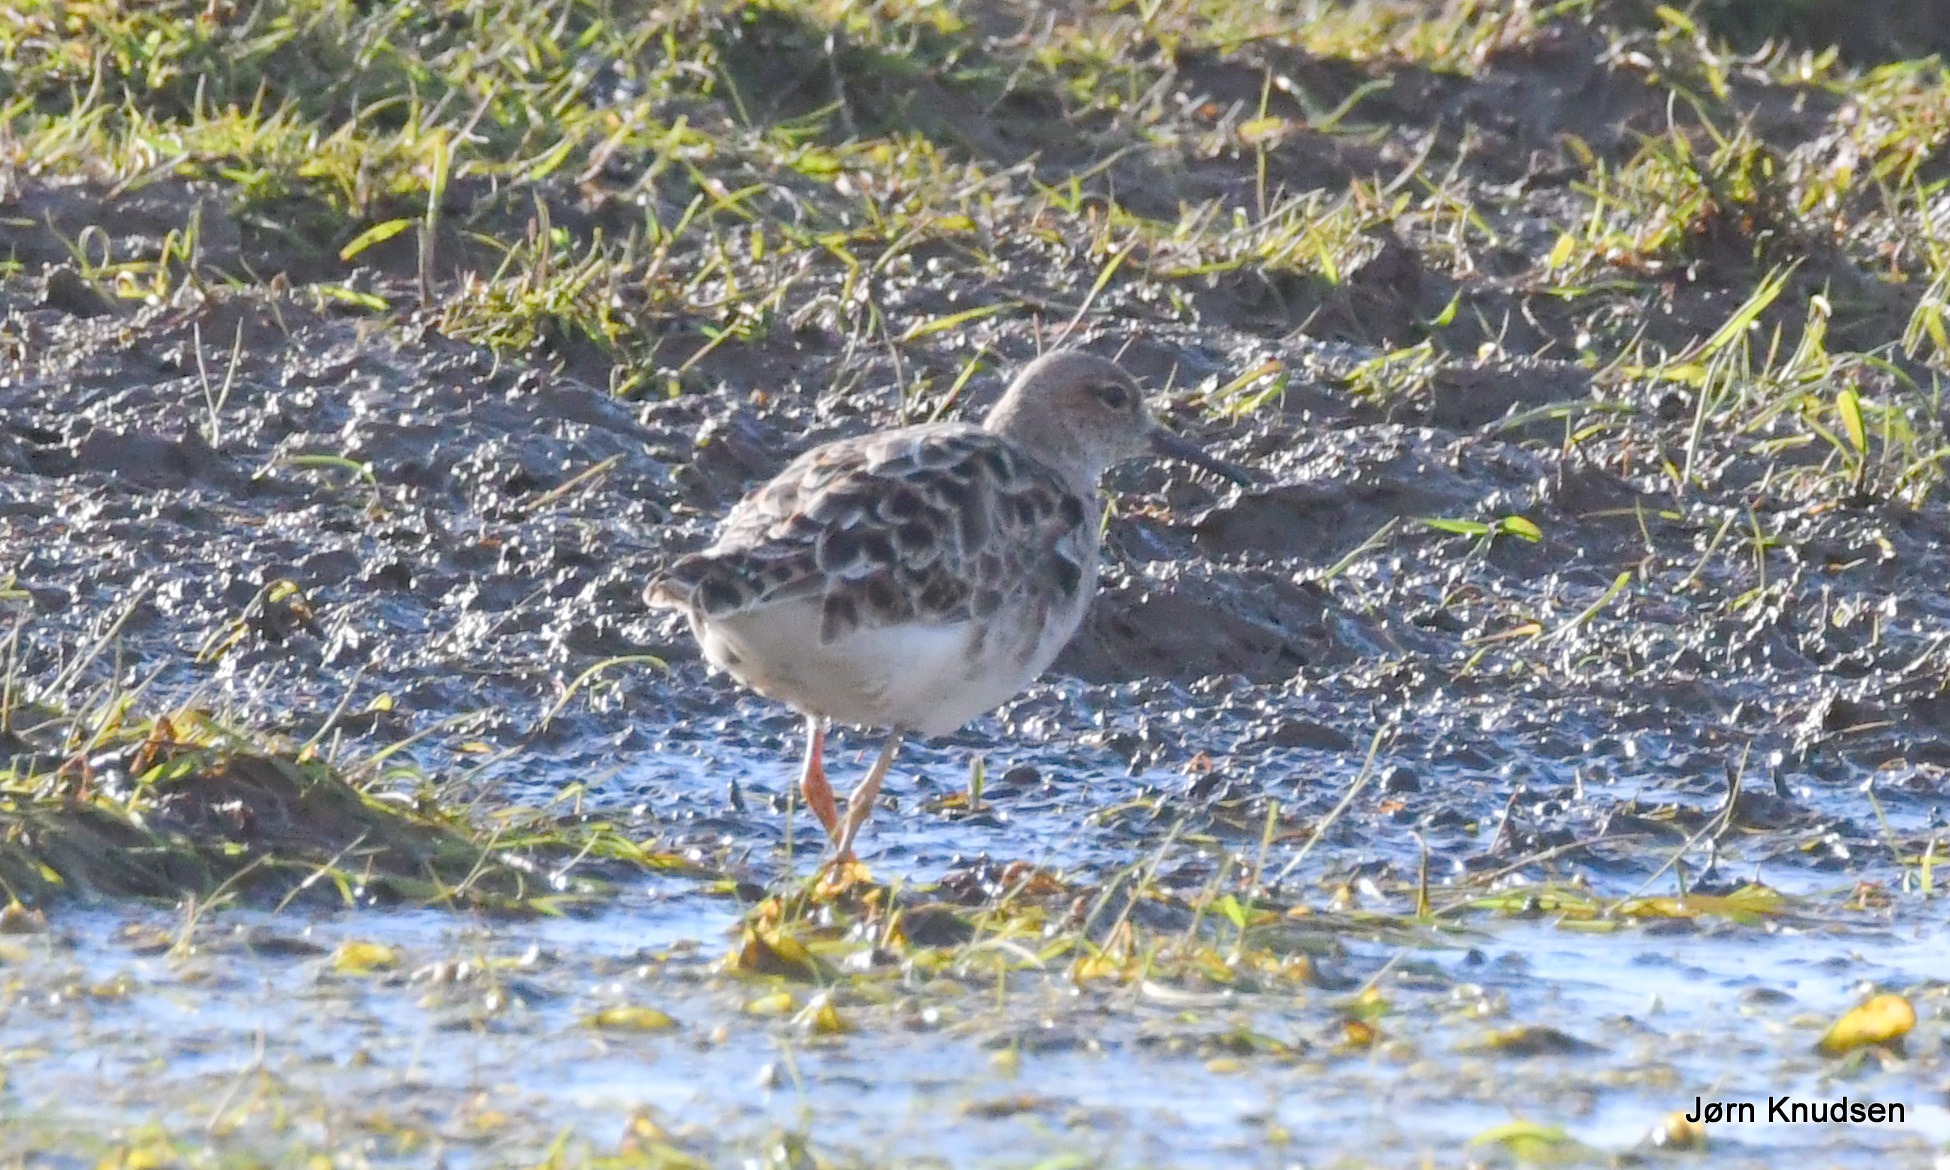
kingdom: Animalia
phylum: Chordata
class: Aves
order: Charadriiformes
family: Scolopacidae
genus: Calidris
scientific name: Calidris pugnax
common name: Brushane
